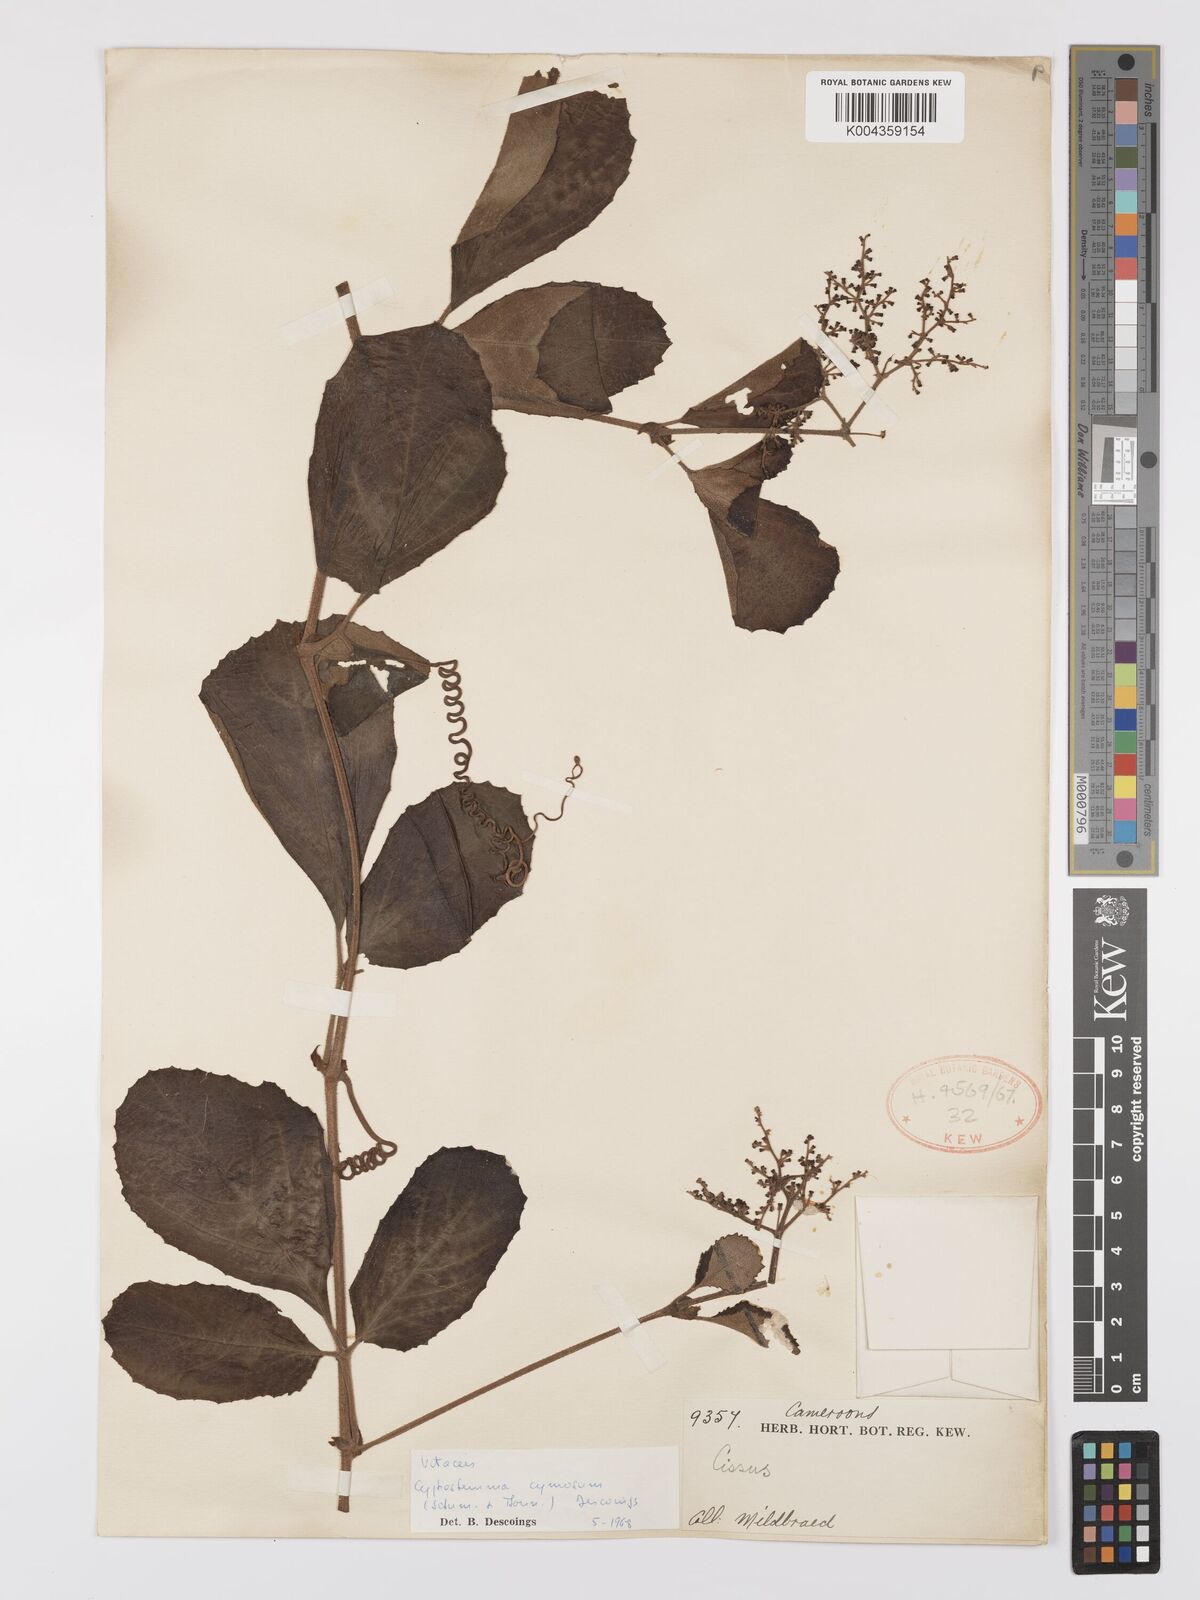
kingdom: Plantae
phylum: Tracheophyta
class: Magnoliopsida
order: Vitales
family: Vitaceae
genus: Cyphostemma
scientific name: Cyphostemma cymosum
